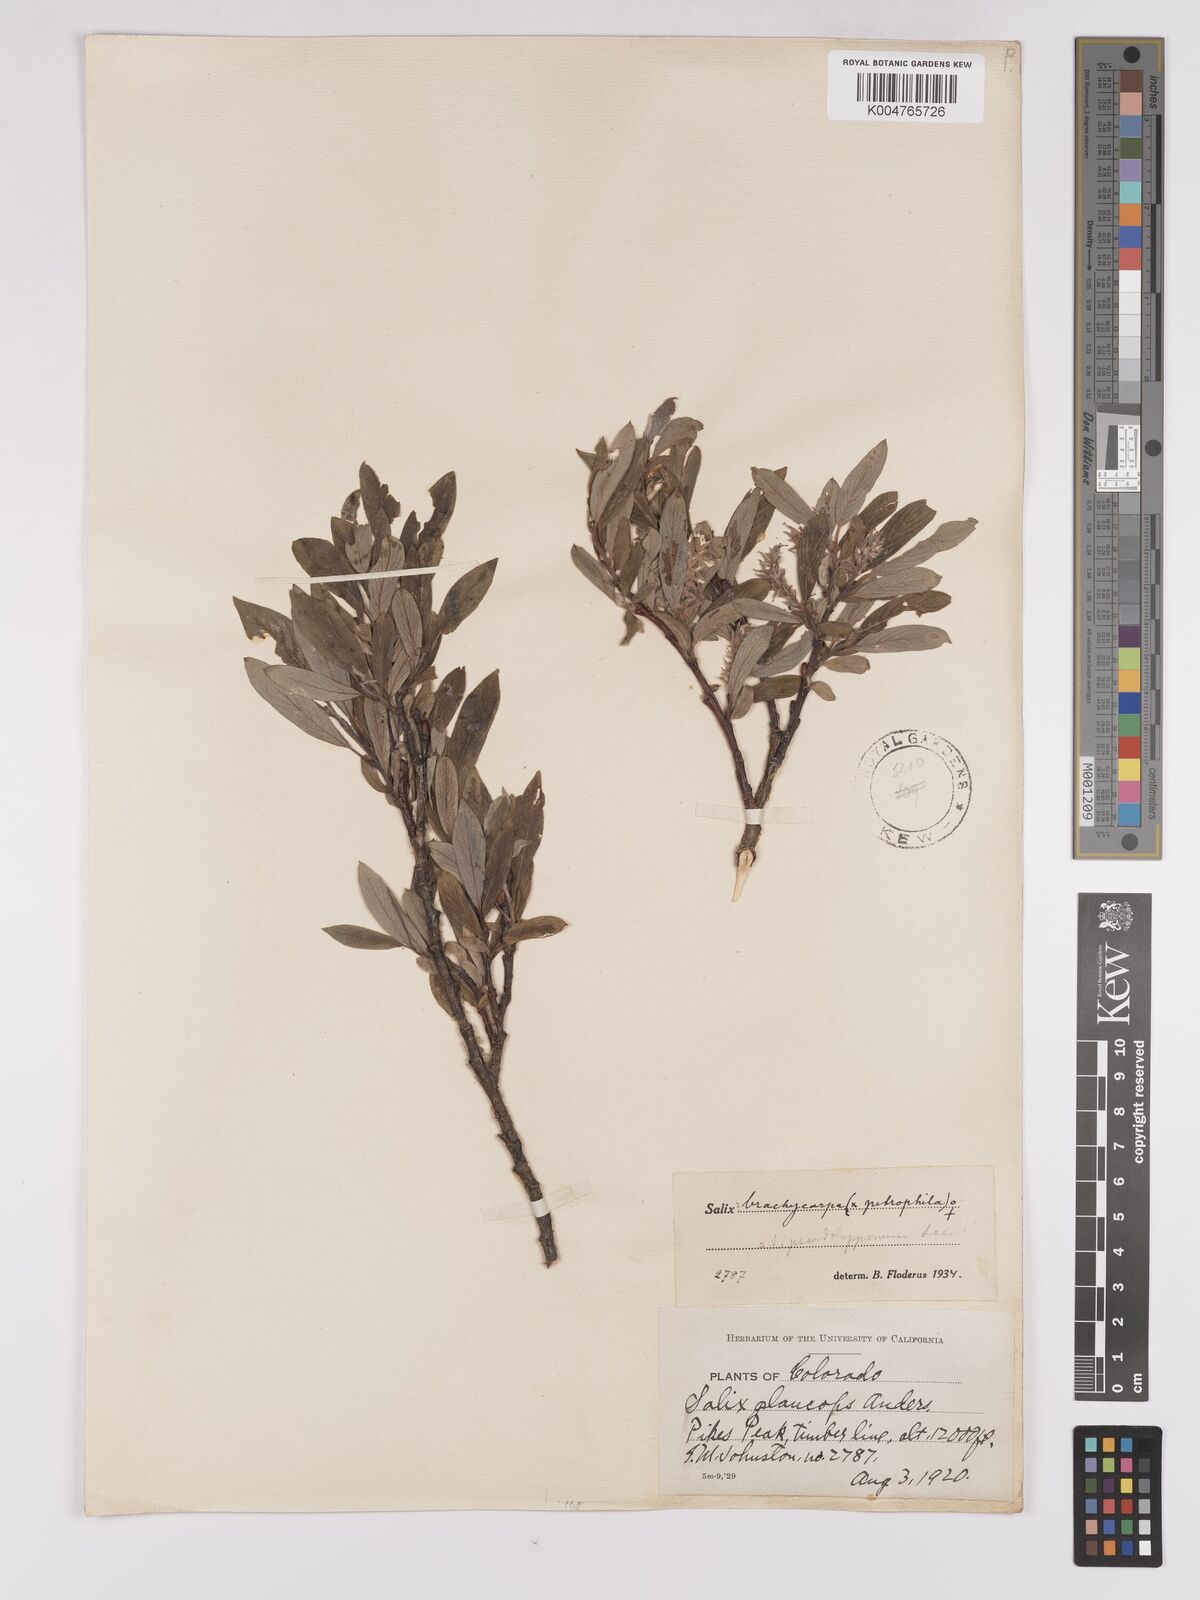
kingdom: Plantae
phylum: Tracheophyta
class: Magnoliopsida
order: Malpighiales
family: Salicaceae
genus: Salix
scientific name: Salix brachycarpa
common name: Barren-ground willow
